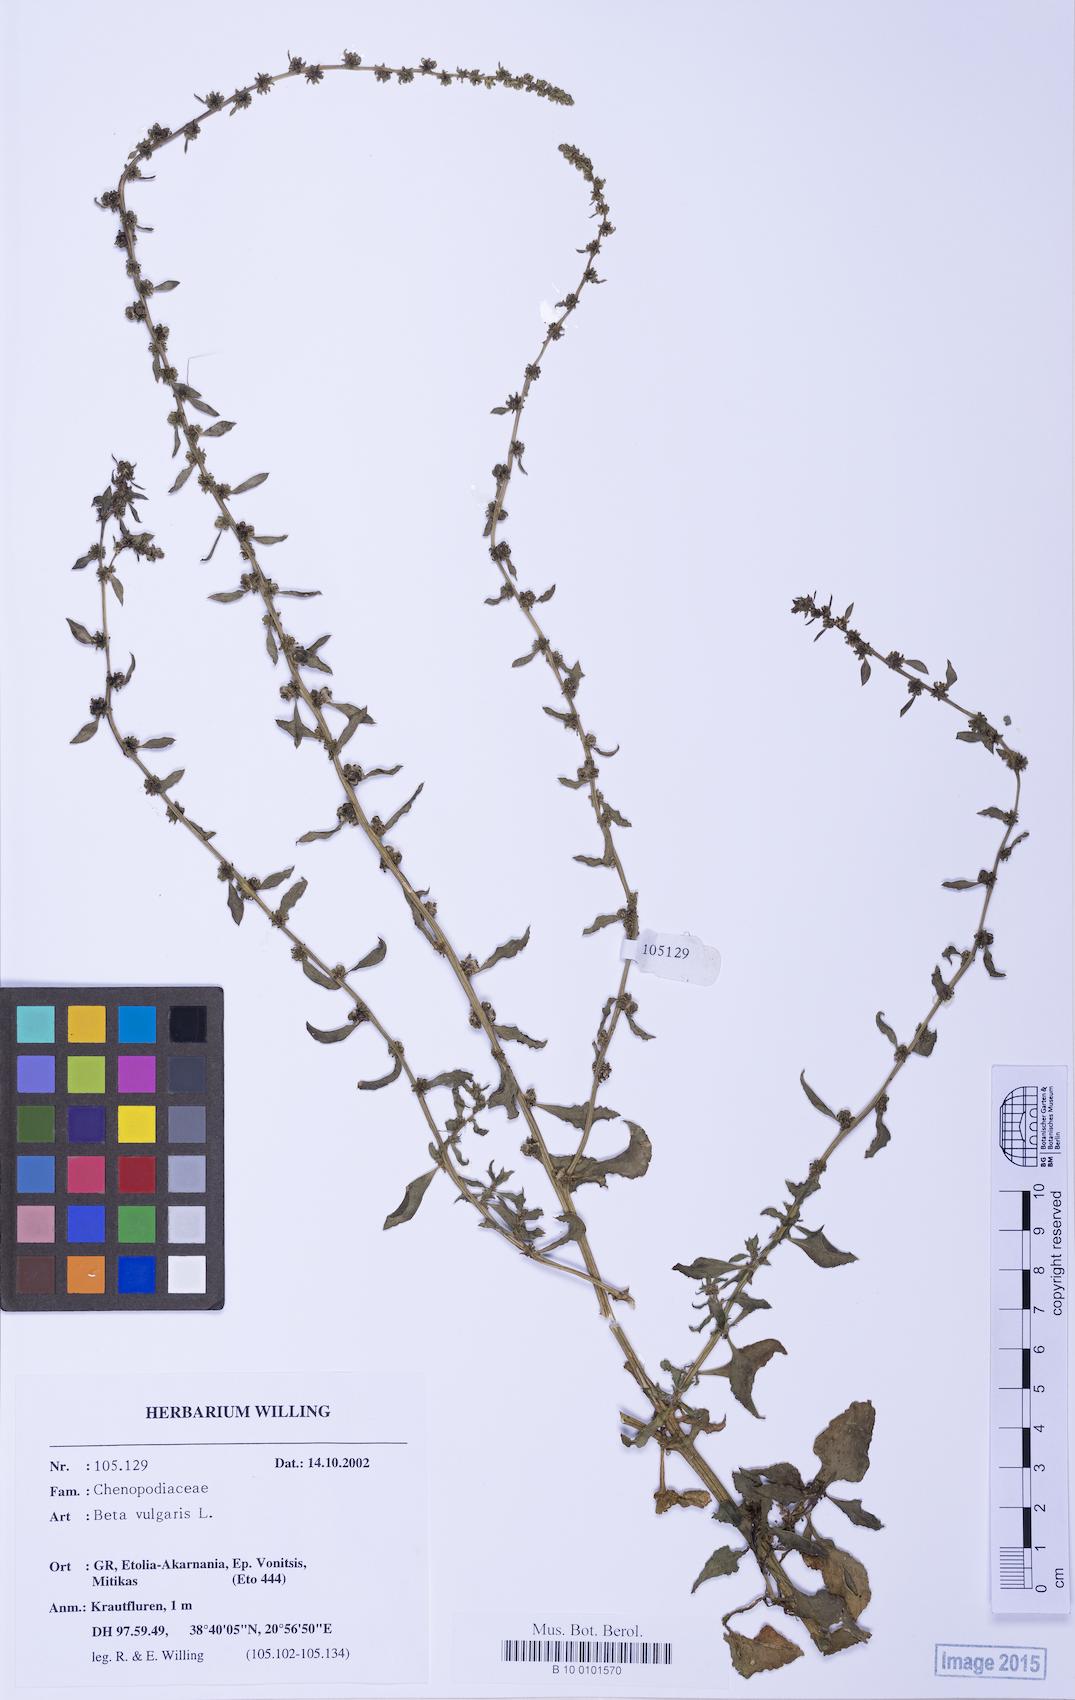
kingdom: Plantae
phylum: Tracheophyta
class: Magnoliopsida
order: Caryophyllales
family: Amaranthaceae
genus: Beta
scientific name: Beta macrocarpa
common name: Beet
